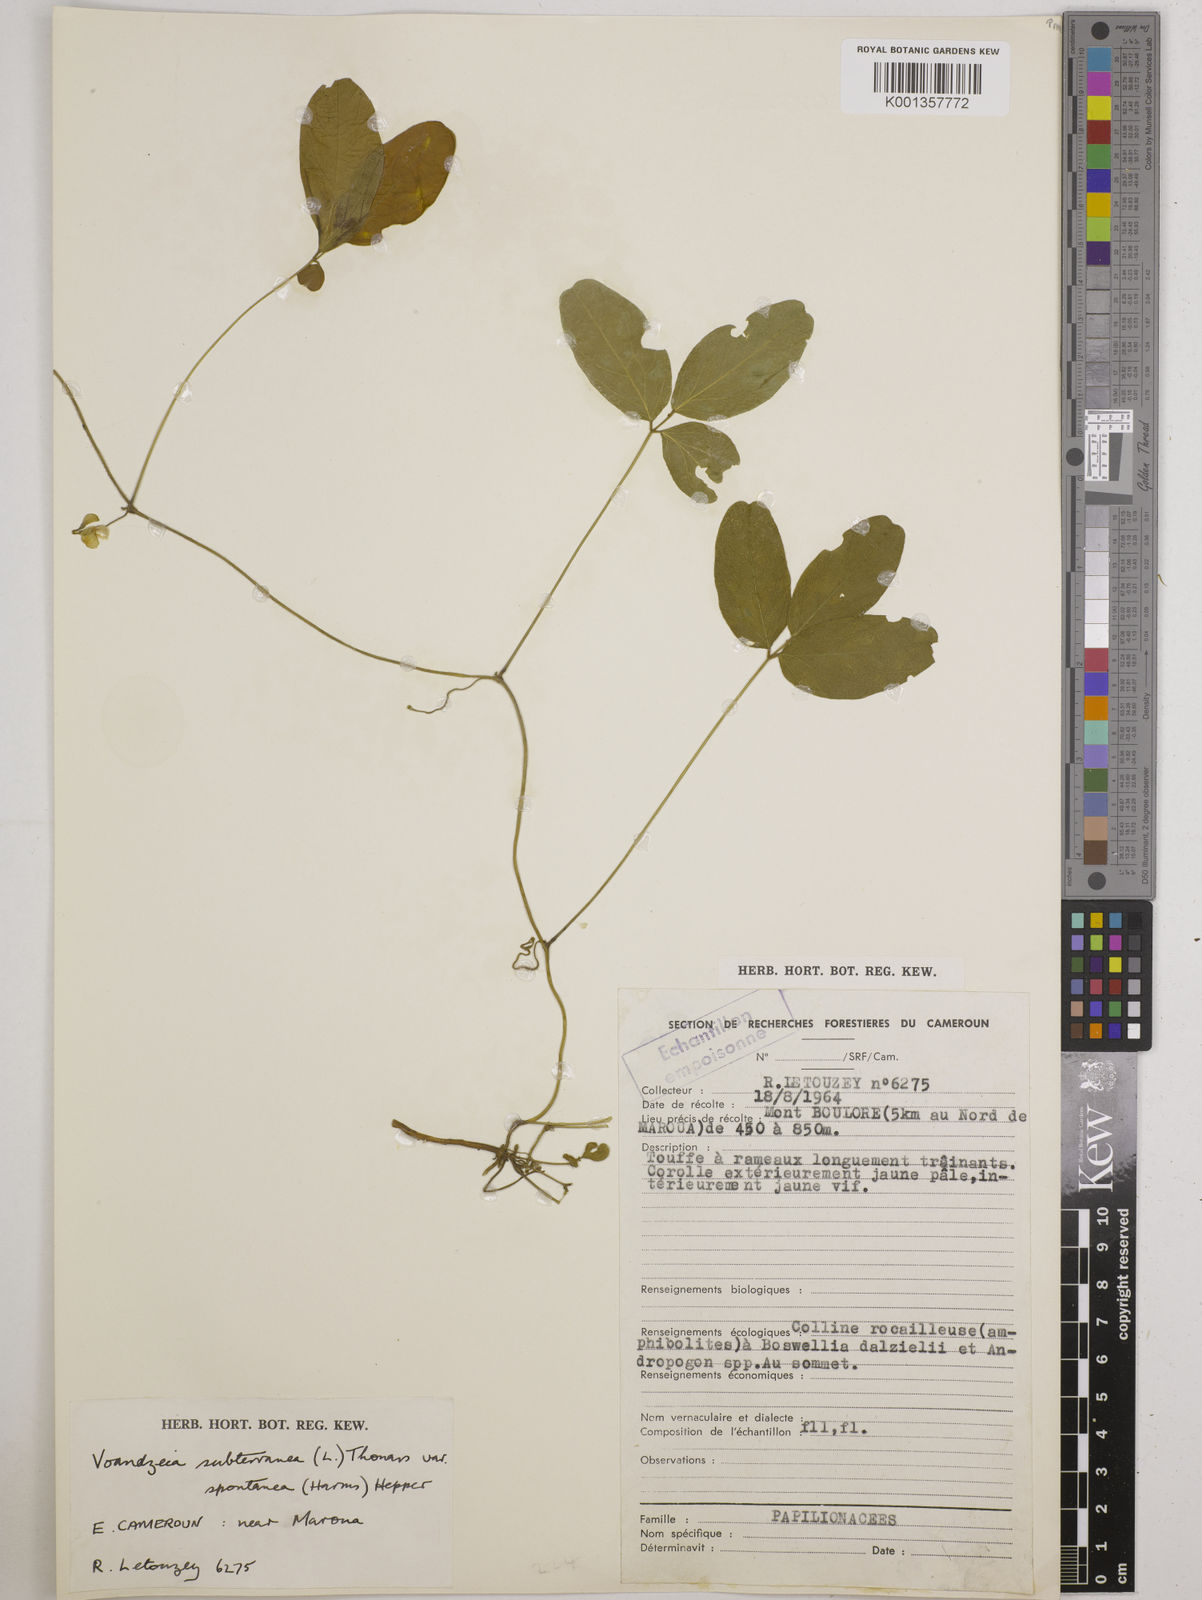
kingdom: Plantae
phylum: Tracheophyta
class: Magnoliopsida
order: Fabales
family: Fabaceae
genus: Vigna
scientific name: Vigna subterranea
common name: Bambara groundnut
